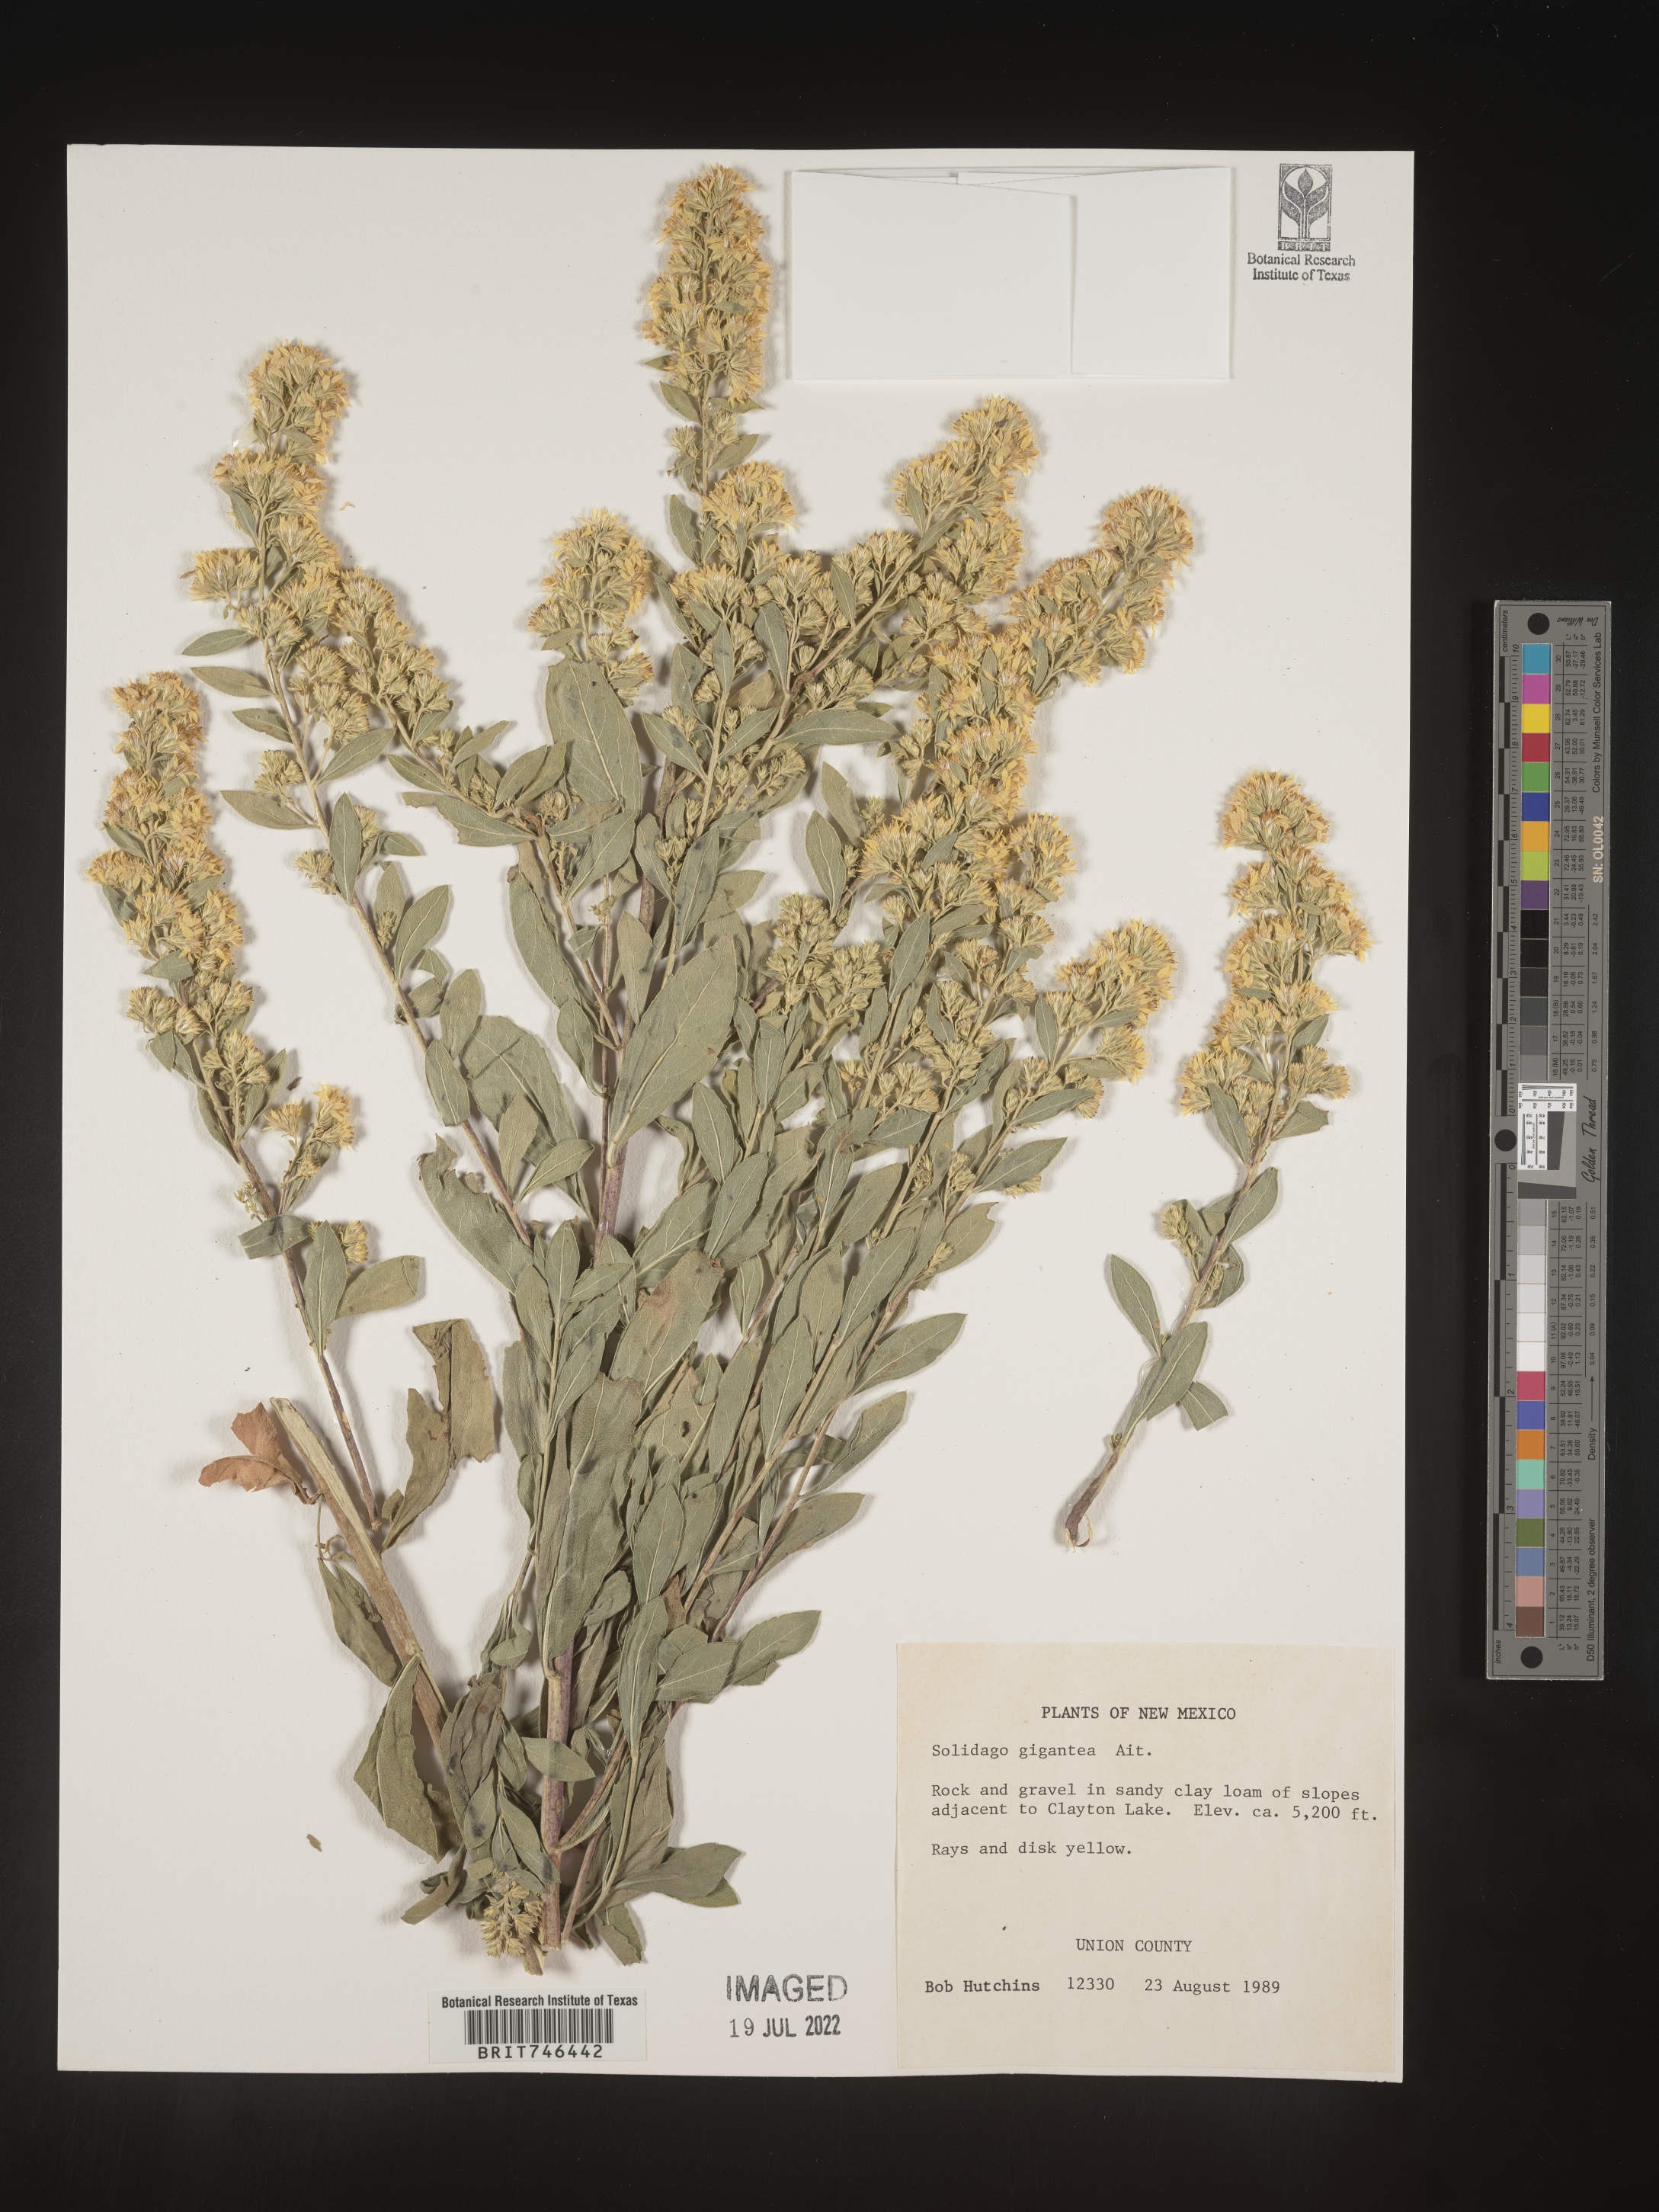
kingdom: Plantae
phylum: Tracheophyta
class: Magnoliopsida
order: Asterales
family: Asteraceae
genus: Solidago
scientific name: Solidago gigantea
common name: Giant goldenrod
